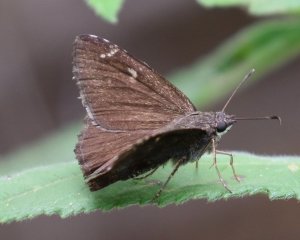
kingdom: Animalia
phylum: Arthropoda
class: Insecta
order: Lepidoptera
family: Hesperiidae
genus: Caicella
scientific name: Caicella calchas
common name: Mimosa Skipper
